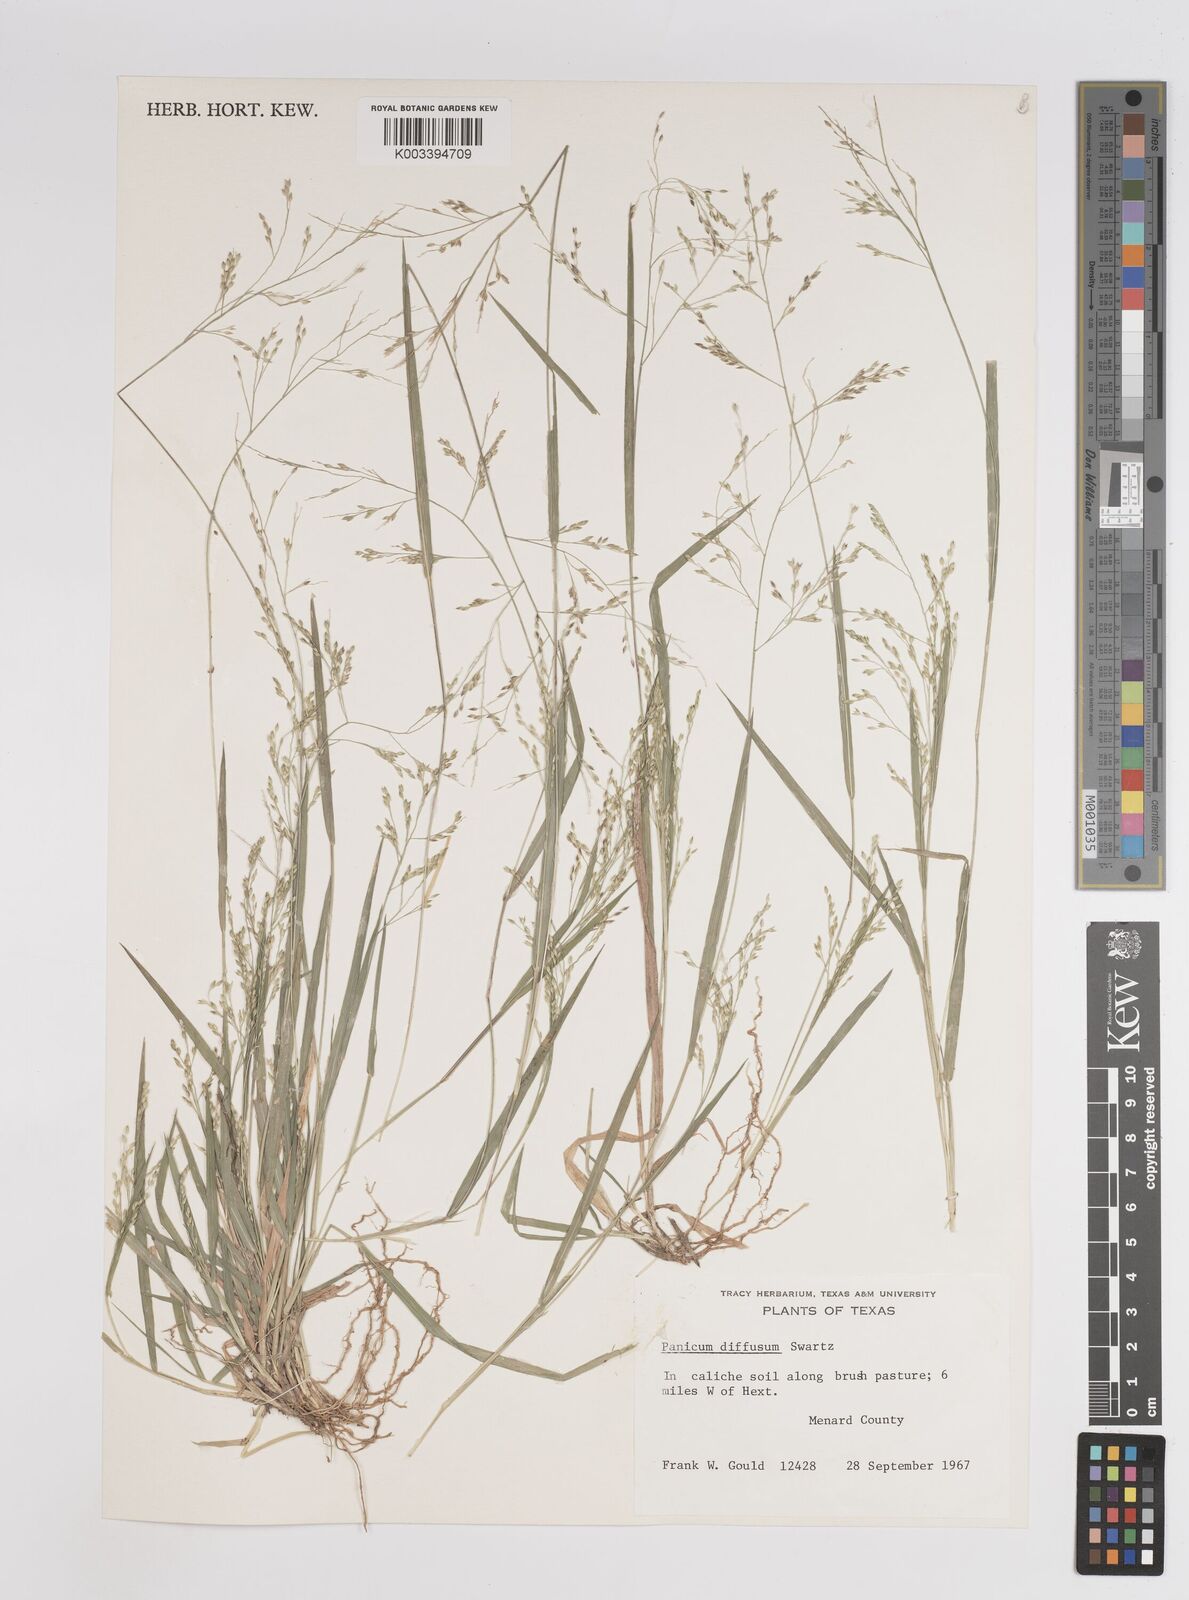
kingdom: Plantae
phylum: Tracheophyta
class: Liliopsida
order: Poales
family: Poaceae
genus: Panicum
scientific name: Panicum diffusum
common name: Spreading panicgrass
